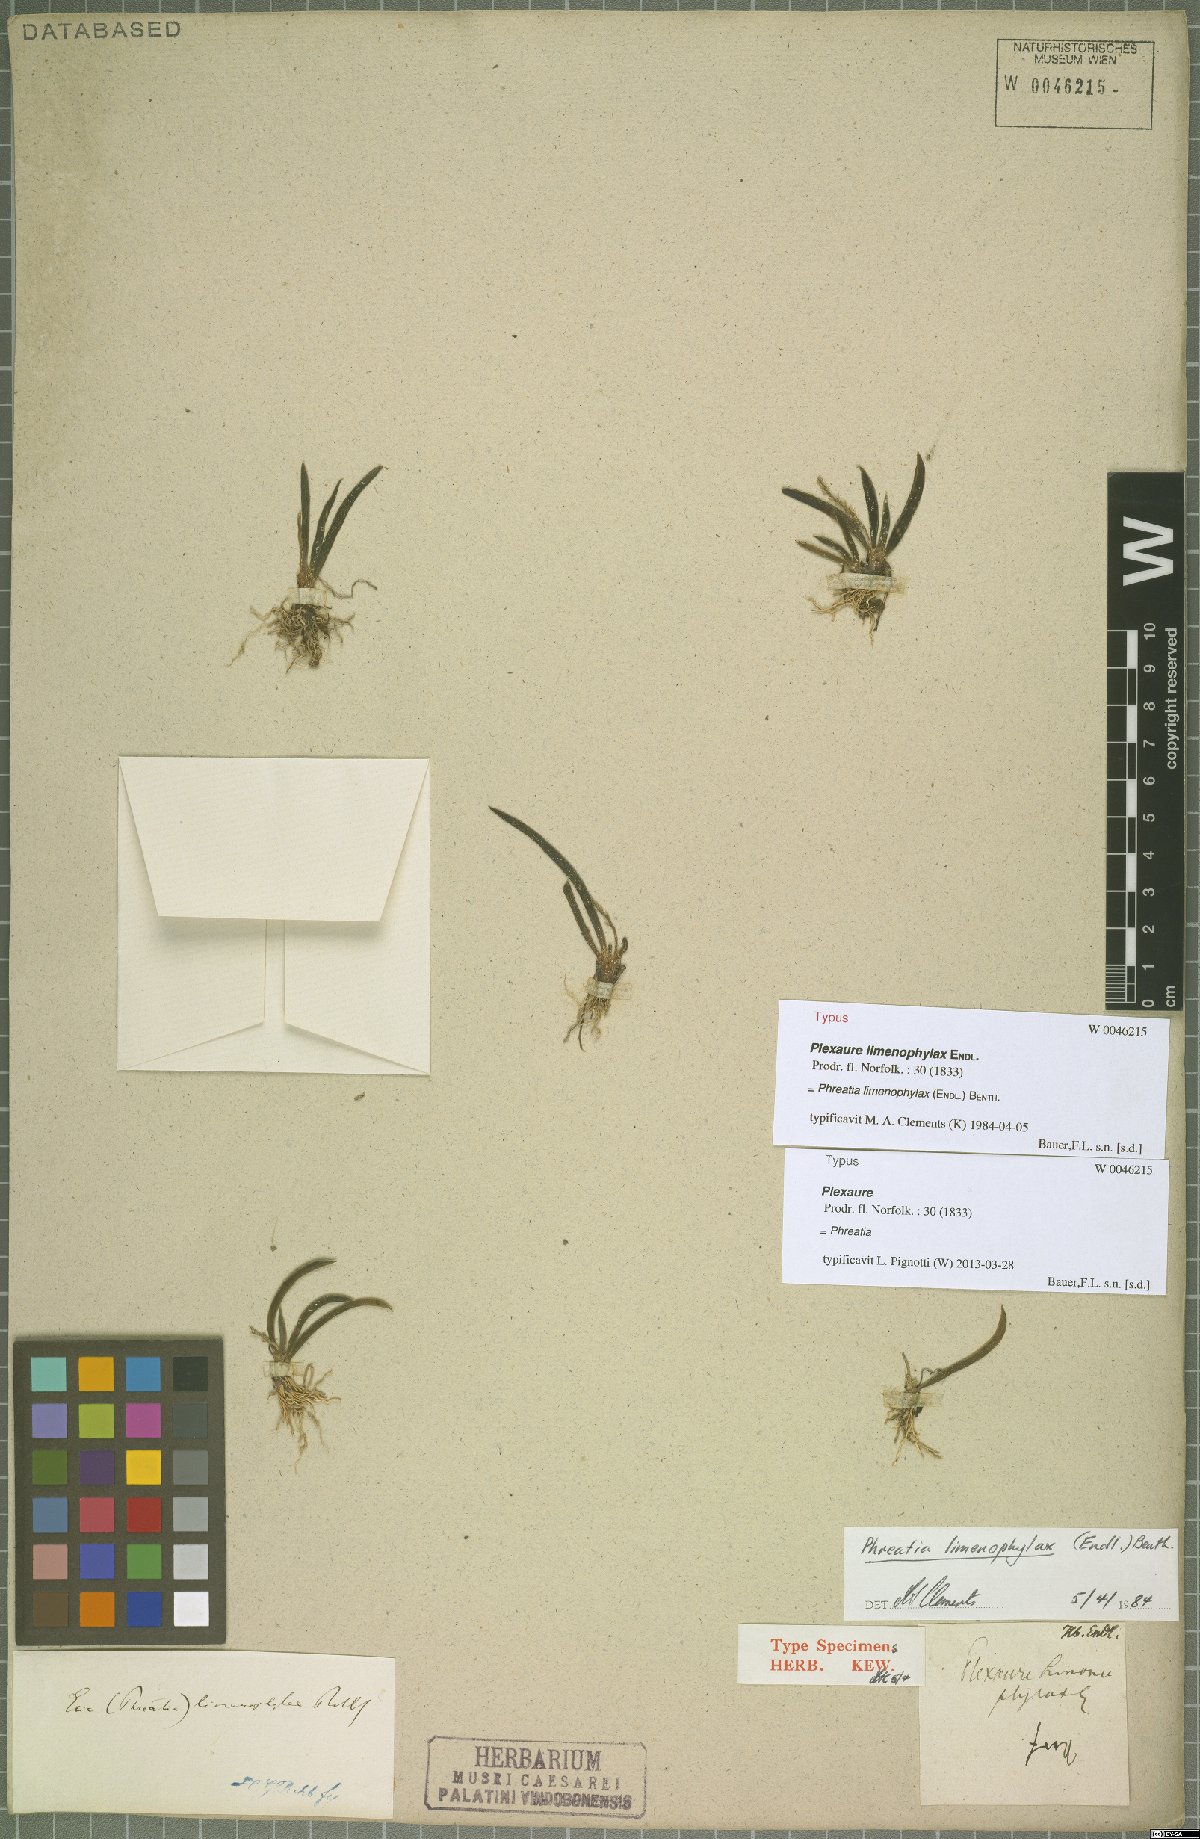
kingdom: Plantae
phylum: Tracheophyta
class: Liliopsida
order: Asparagales
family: Orchidaceae
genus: Phreatia
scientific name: Phreatia crassiuscula
